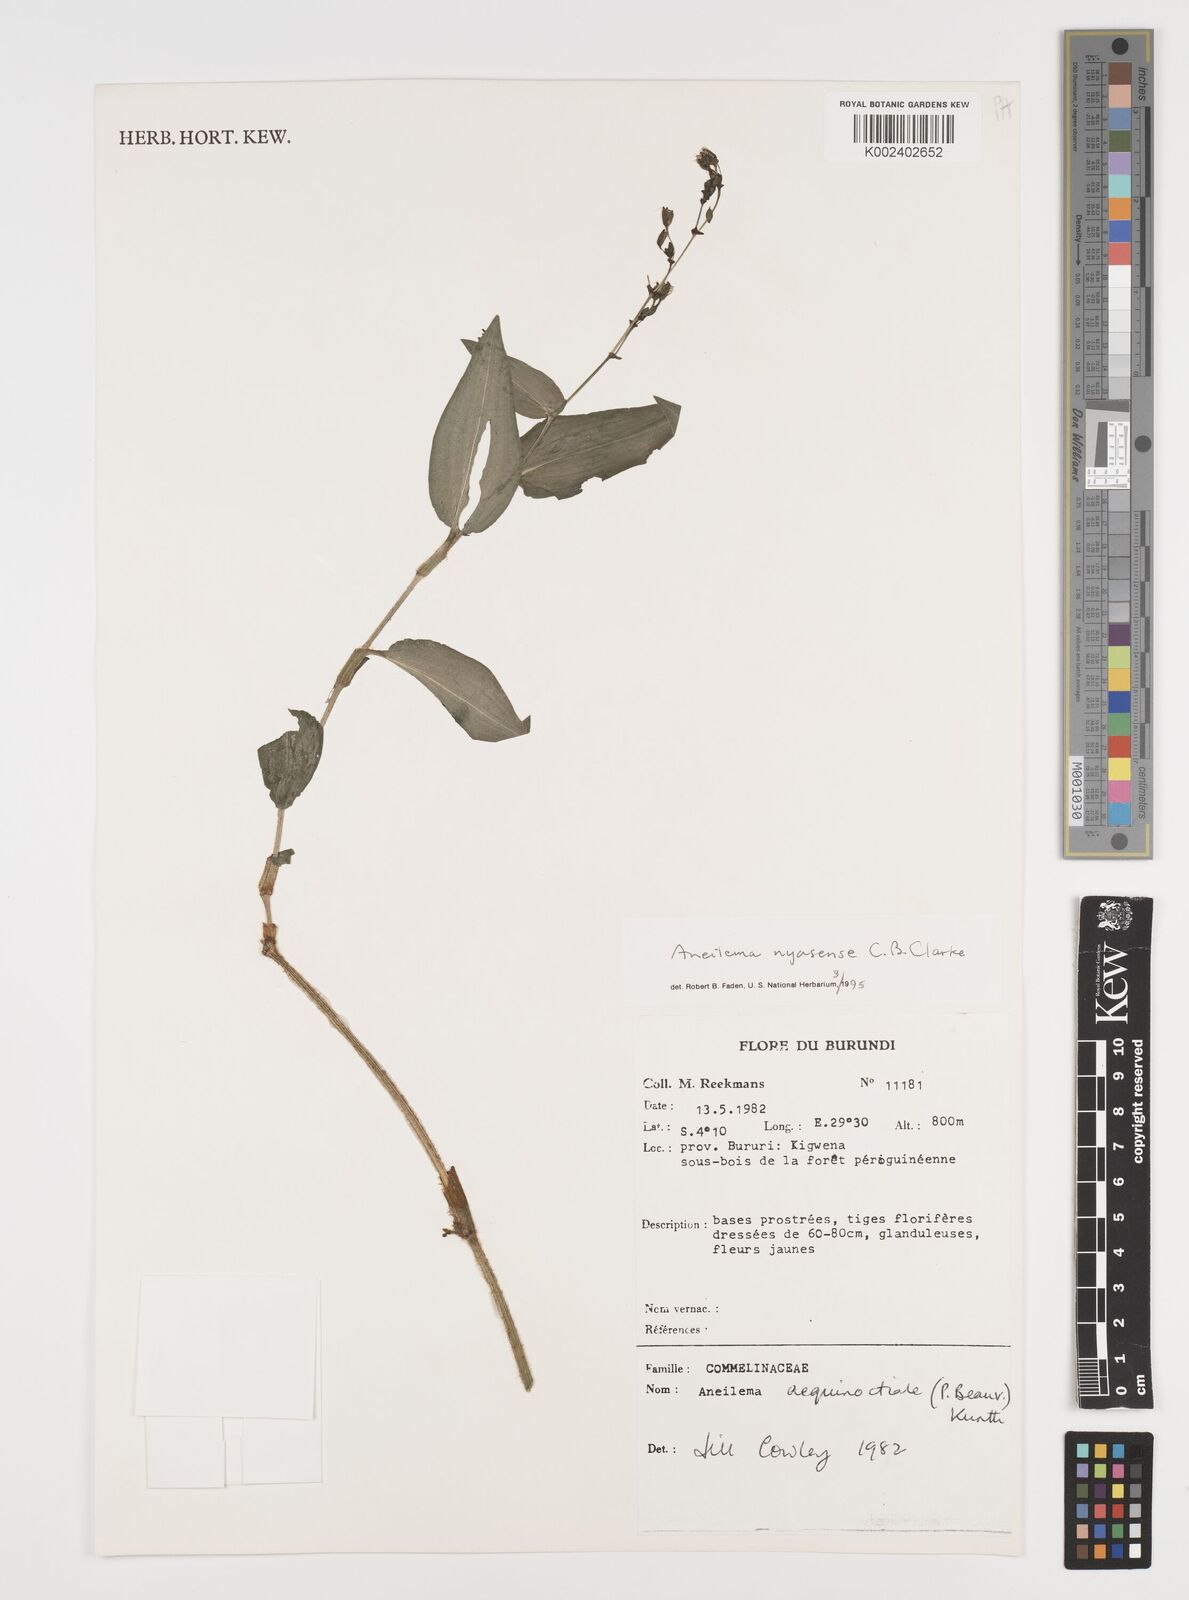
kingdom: Plantae
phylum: Tracheophyta
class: Liliopsida
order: Commelinales
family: Commelinaceae
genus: Aneilema
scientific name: Aneilema nyasense
